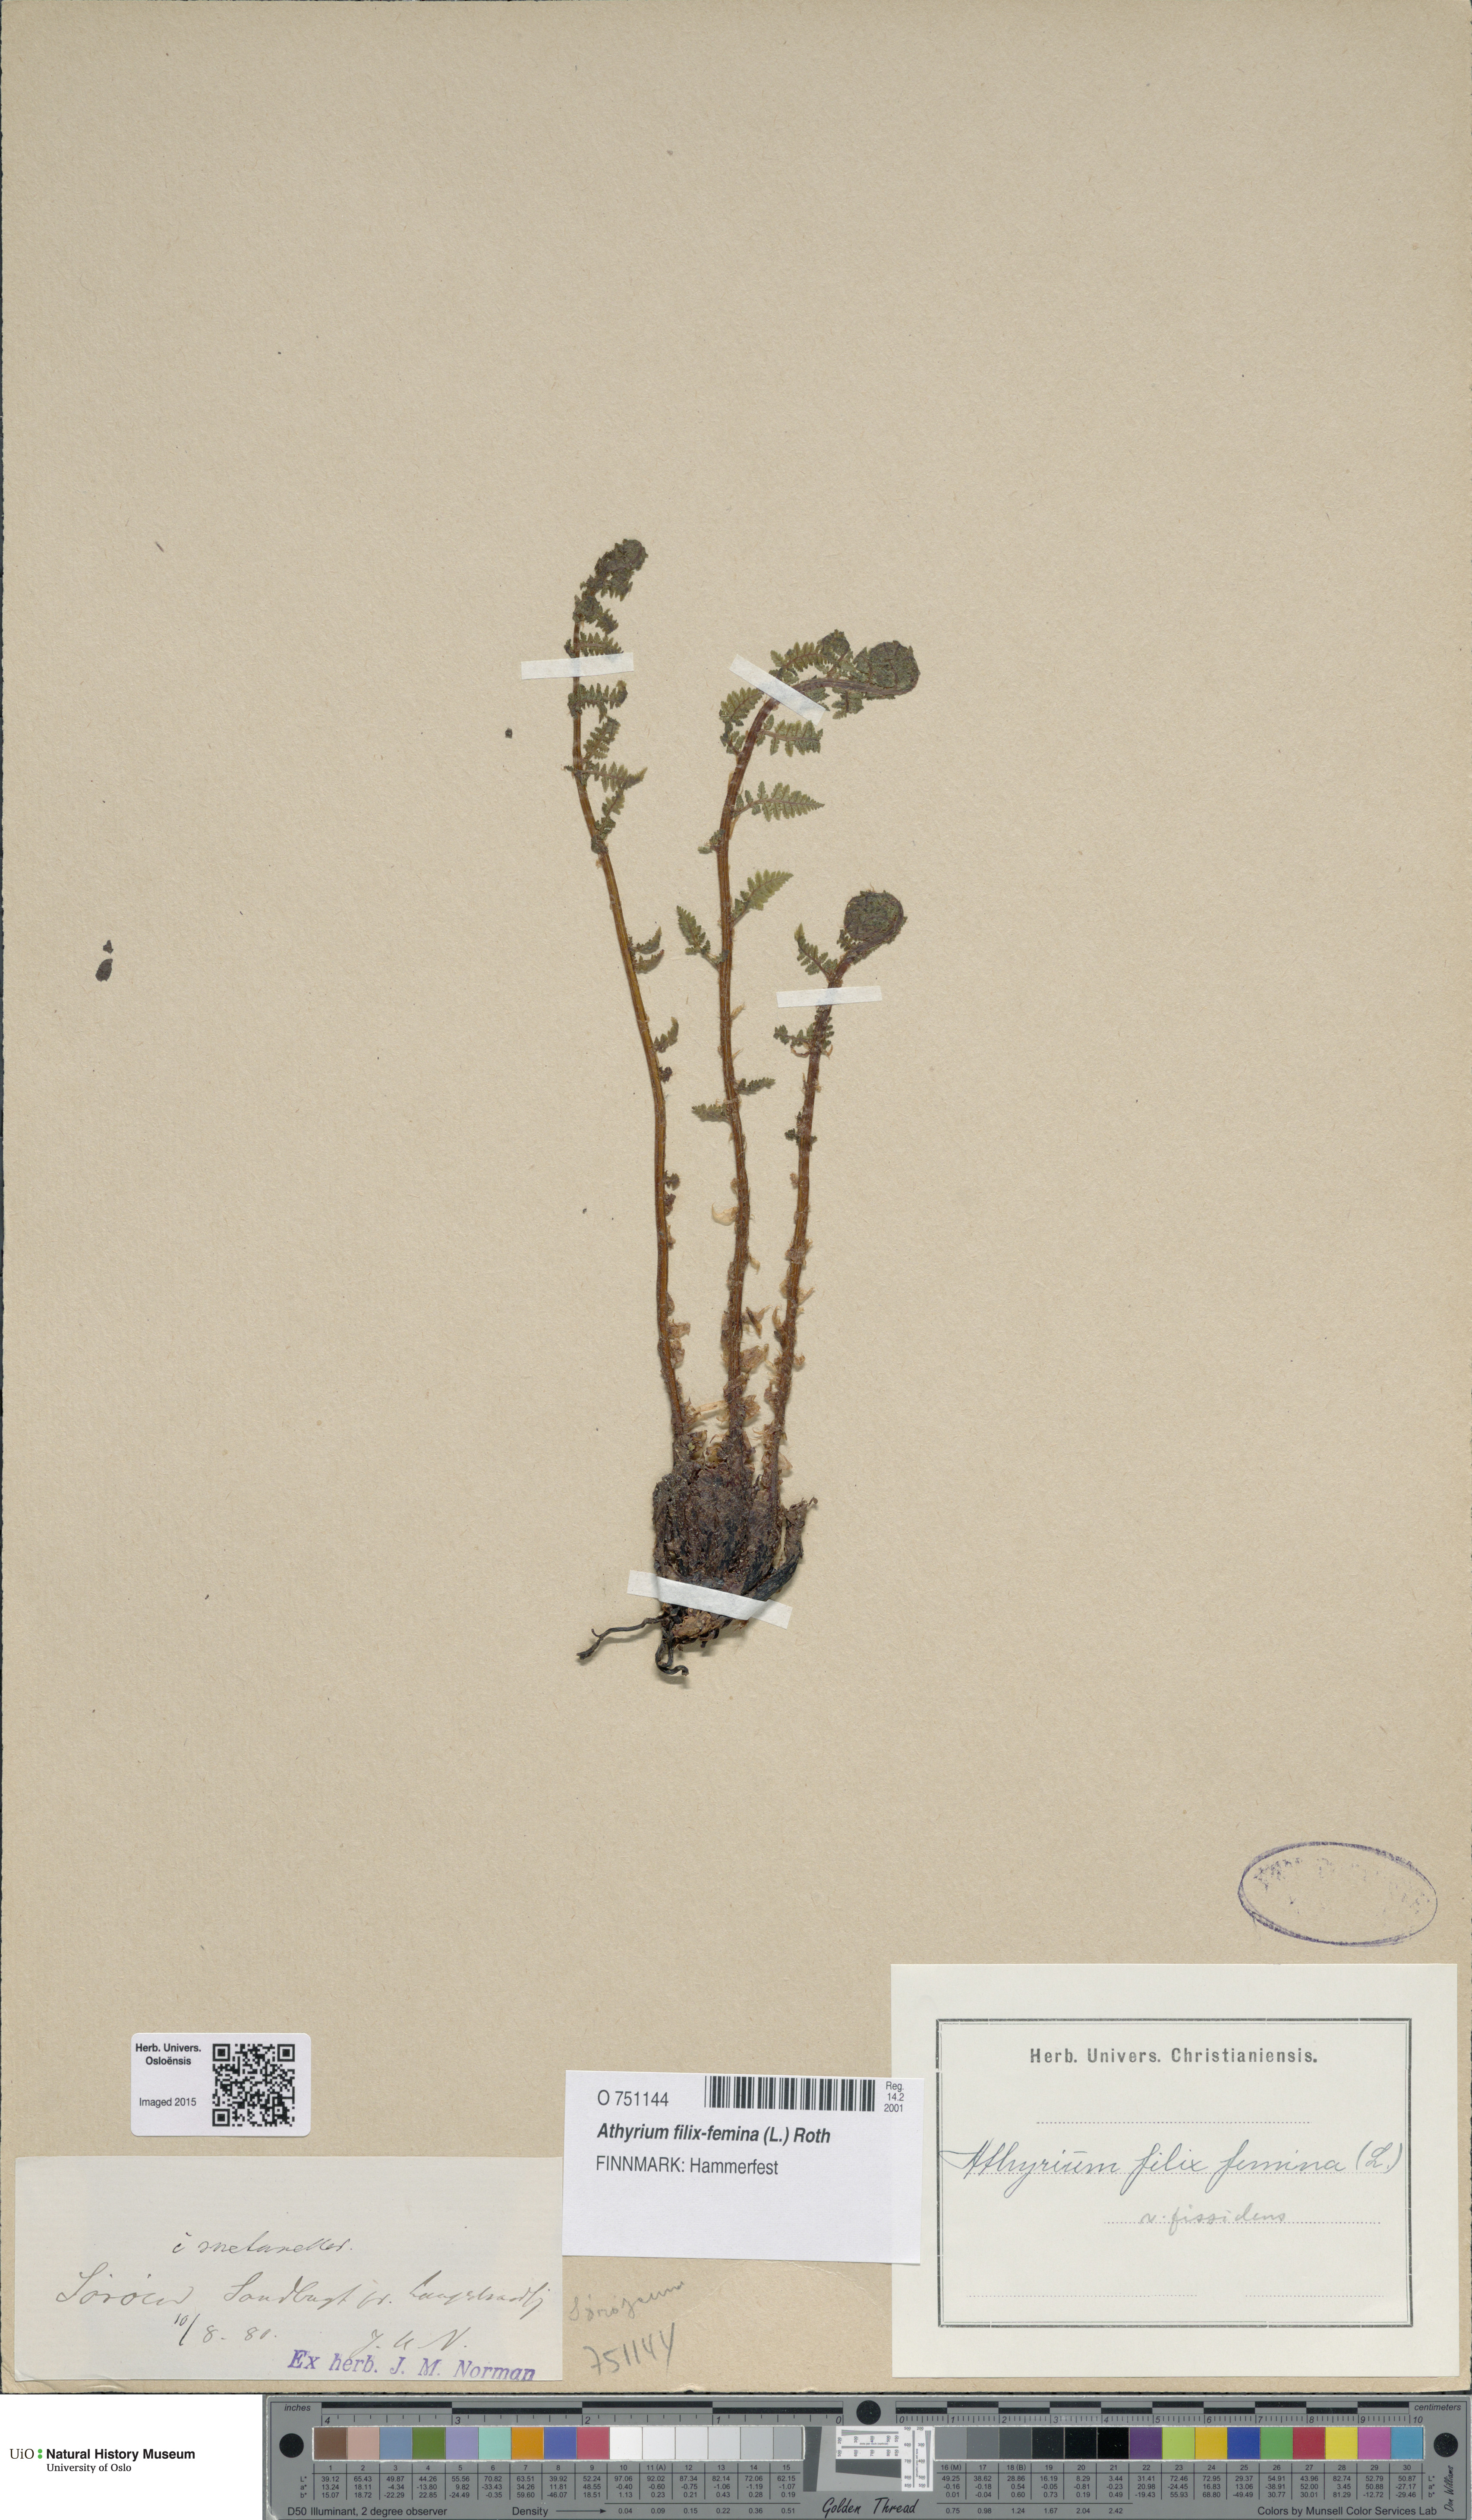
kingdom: Plantae
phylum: Tracheophyta
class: Polypodiopsida
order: Polypodiales
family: Athyriaceae
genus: Athyrium
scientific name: Athyrium filix-femina
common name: Lady fern
